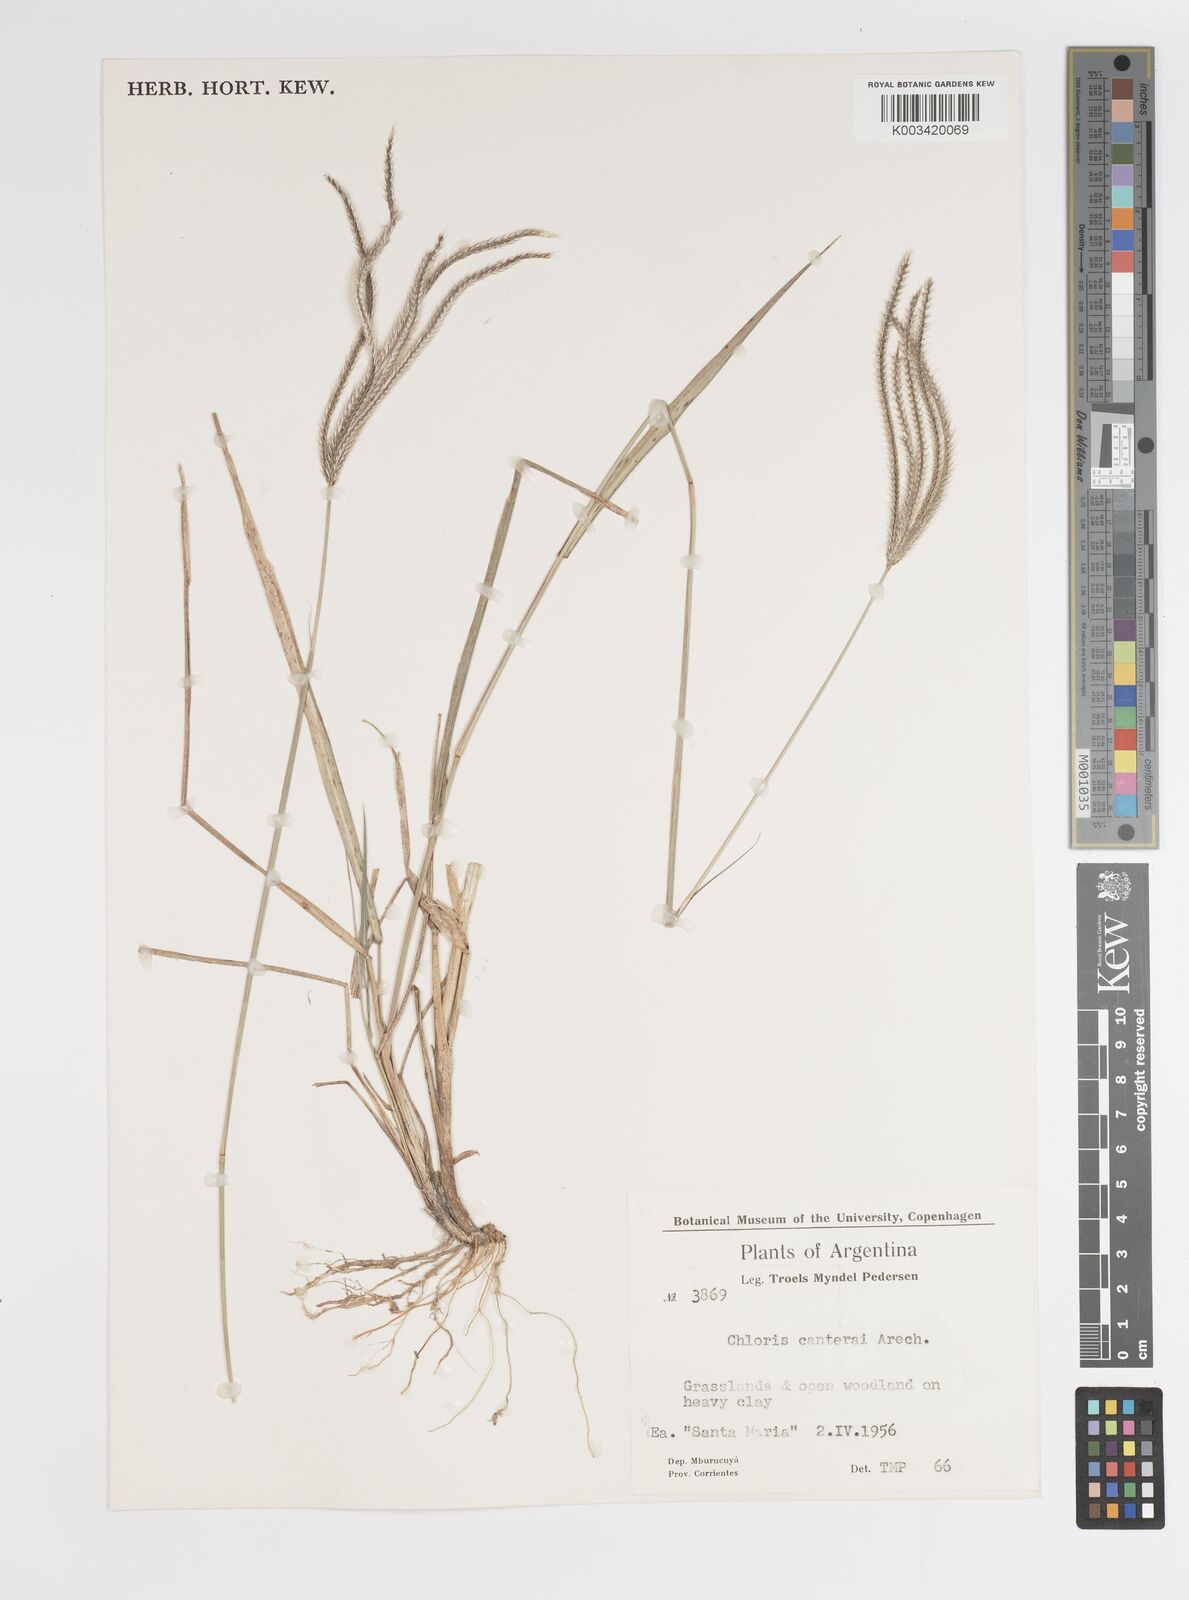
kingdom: Plantae
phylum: Tracheophyta
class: Liliopsida
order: Poales
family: Poaceae
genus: Stapfochloa
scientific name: Stapfochloa canterae
